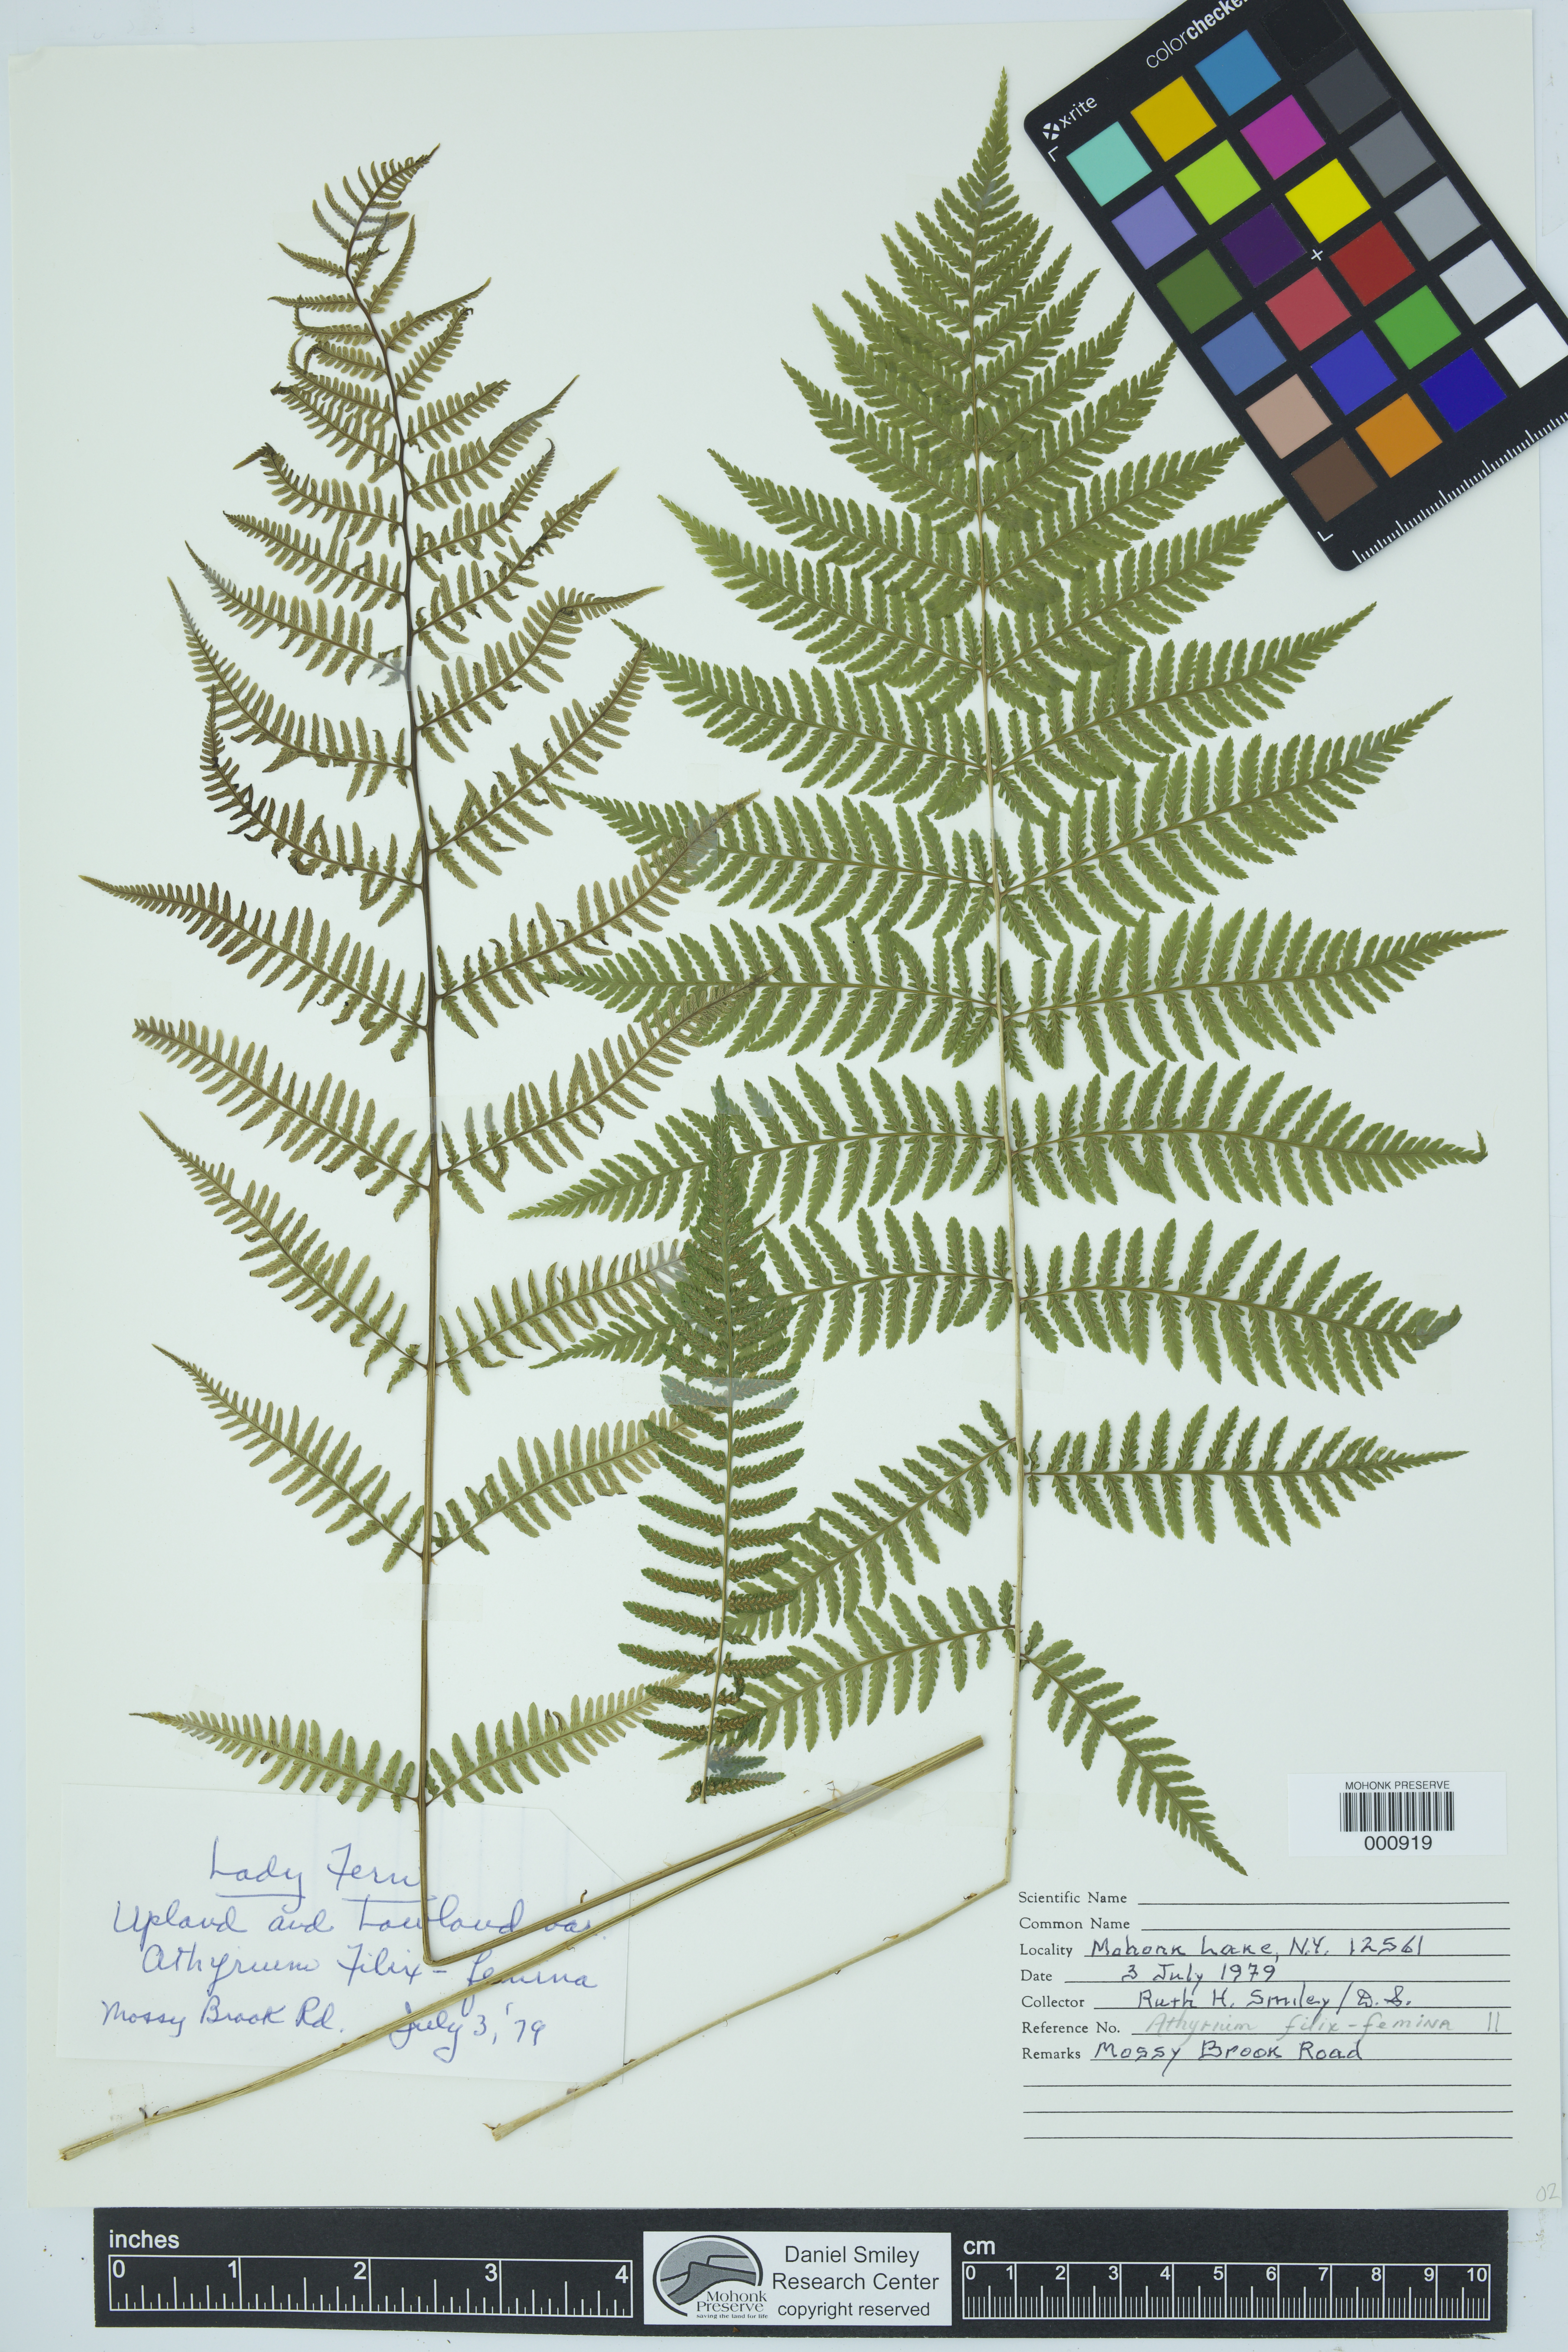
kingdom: Plantae
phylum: Tracheophyta
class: Polypodiopsida
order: Polypodiales
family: Athyriaceae
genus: Athyrium
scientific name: Athyrium filix-femina
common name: Lady fern
